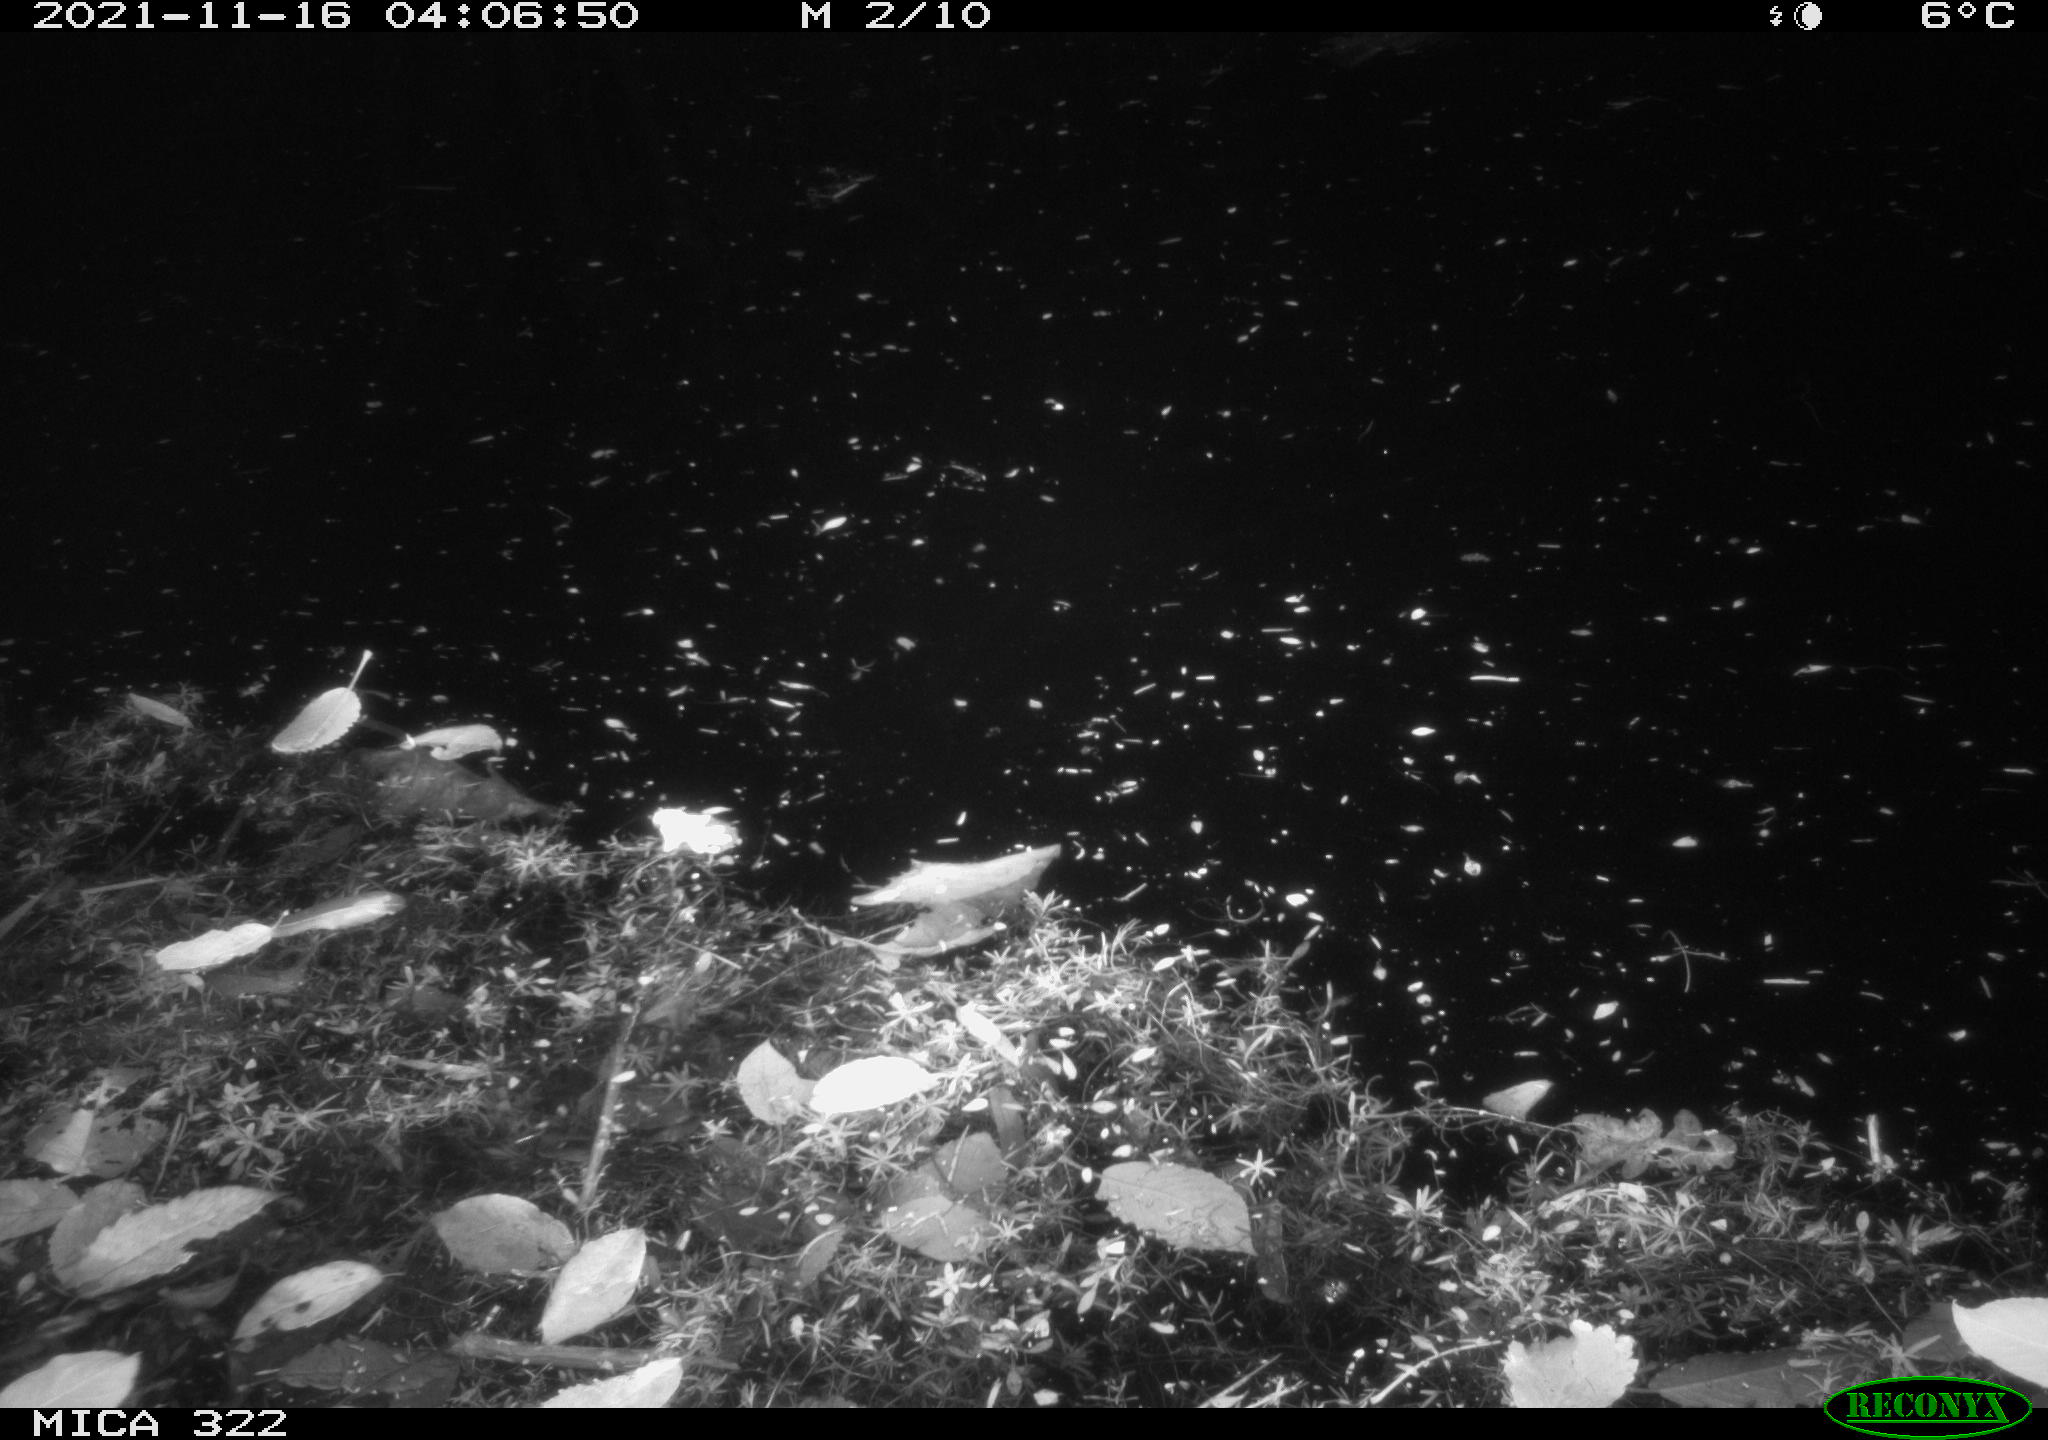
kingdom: Animalia
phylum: Chordata
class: Mammalia
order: Rodentia
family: Muridae
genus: Rattus
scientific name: Rattus norvegicus
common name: Brown rat
